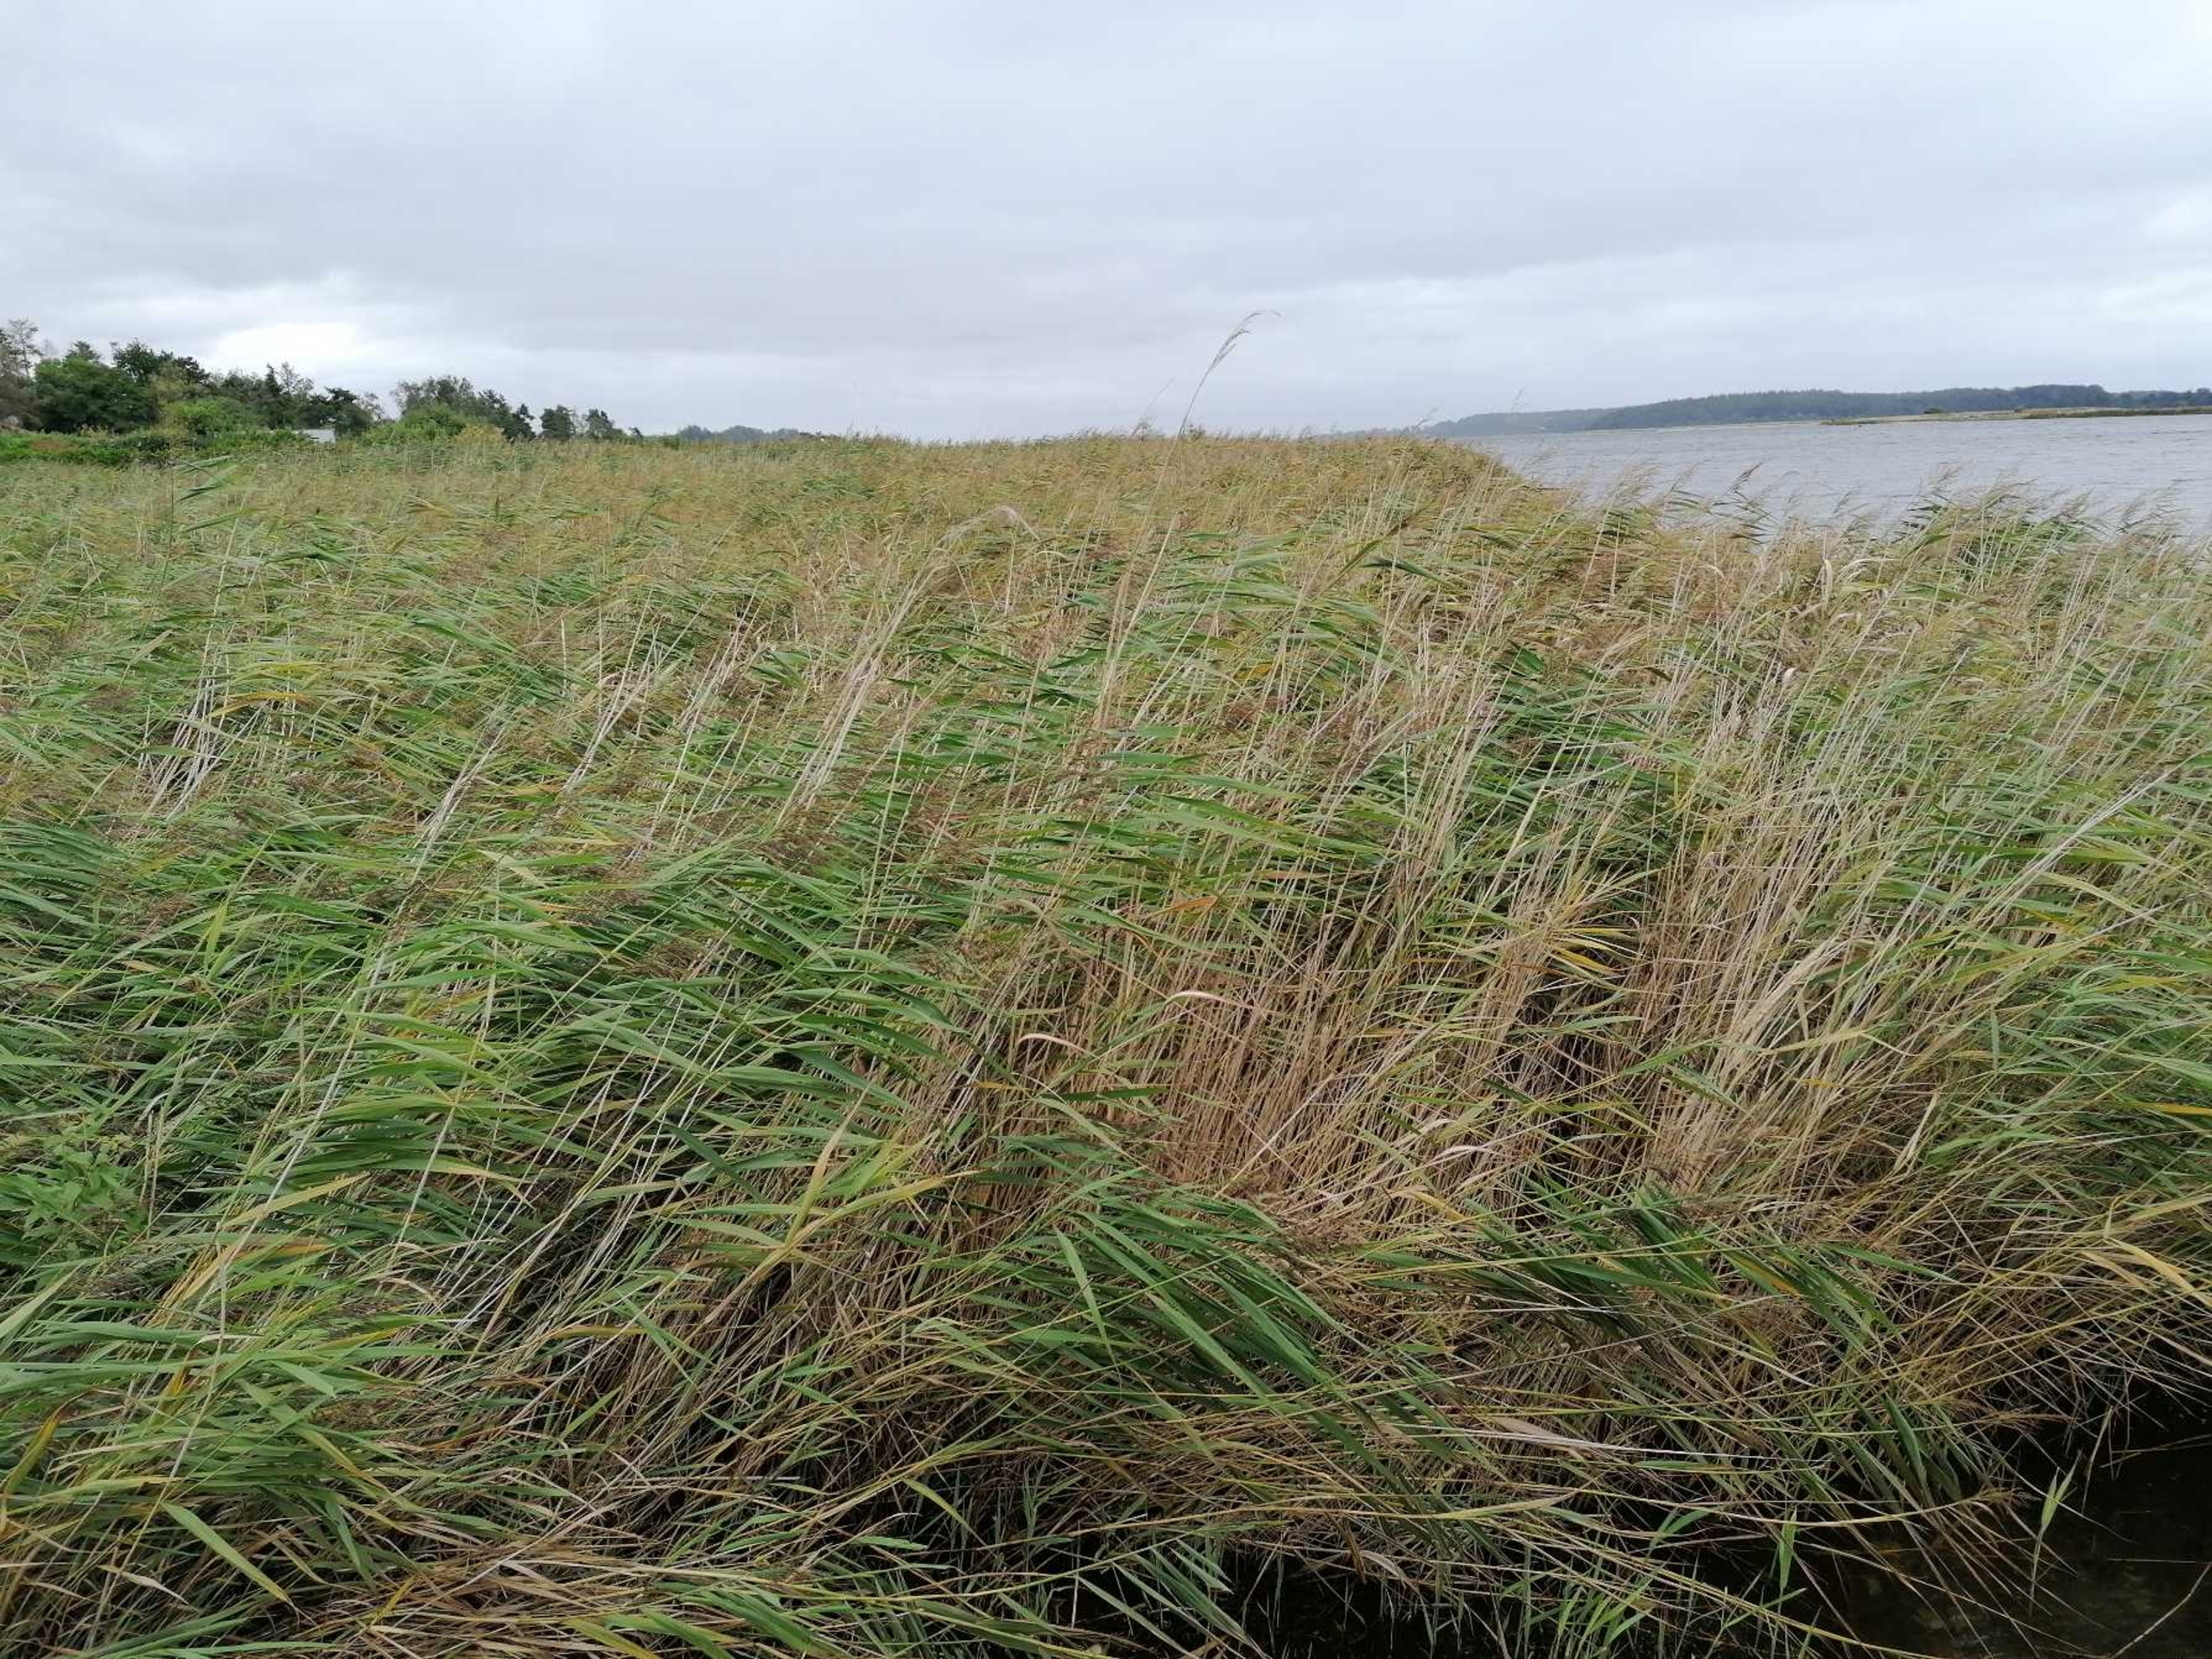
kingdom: Plantae
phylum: Tracheophyta
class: Liliopsida
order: Poales
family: Poaceae
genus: Phragmites
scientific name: Phragmites australis
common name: Tagrør
